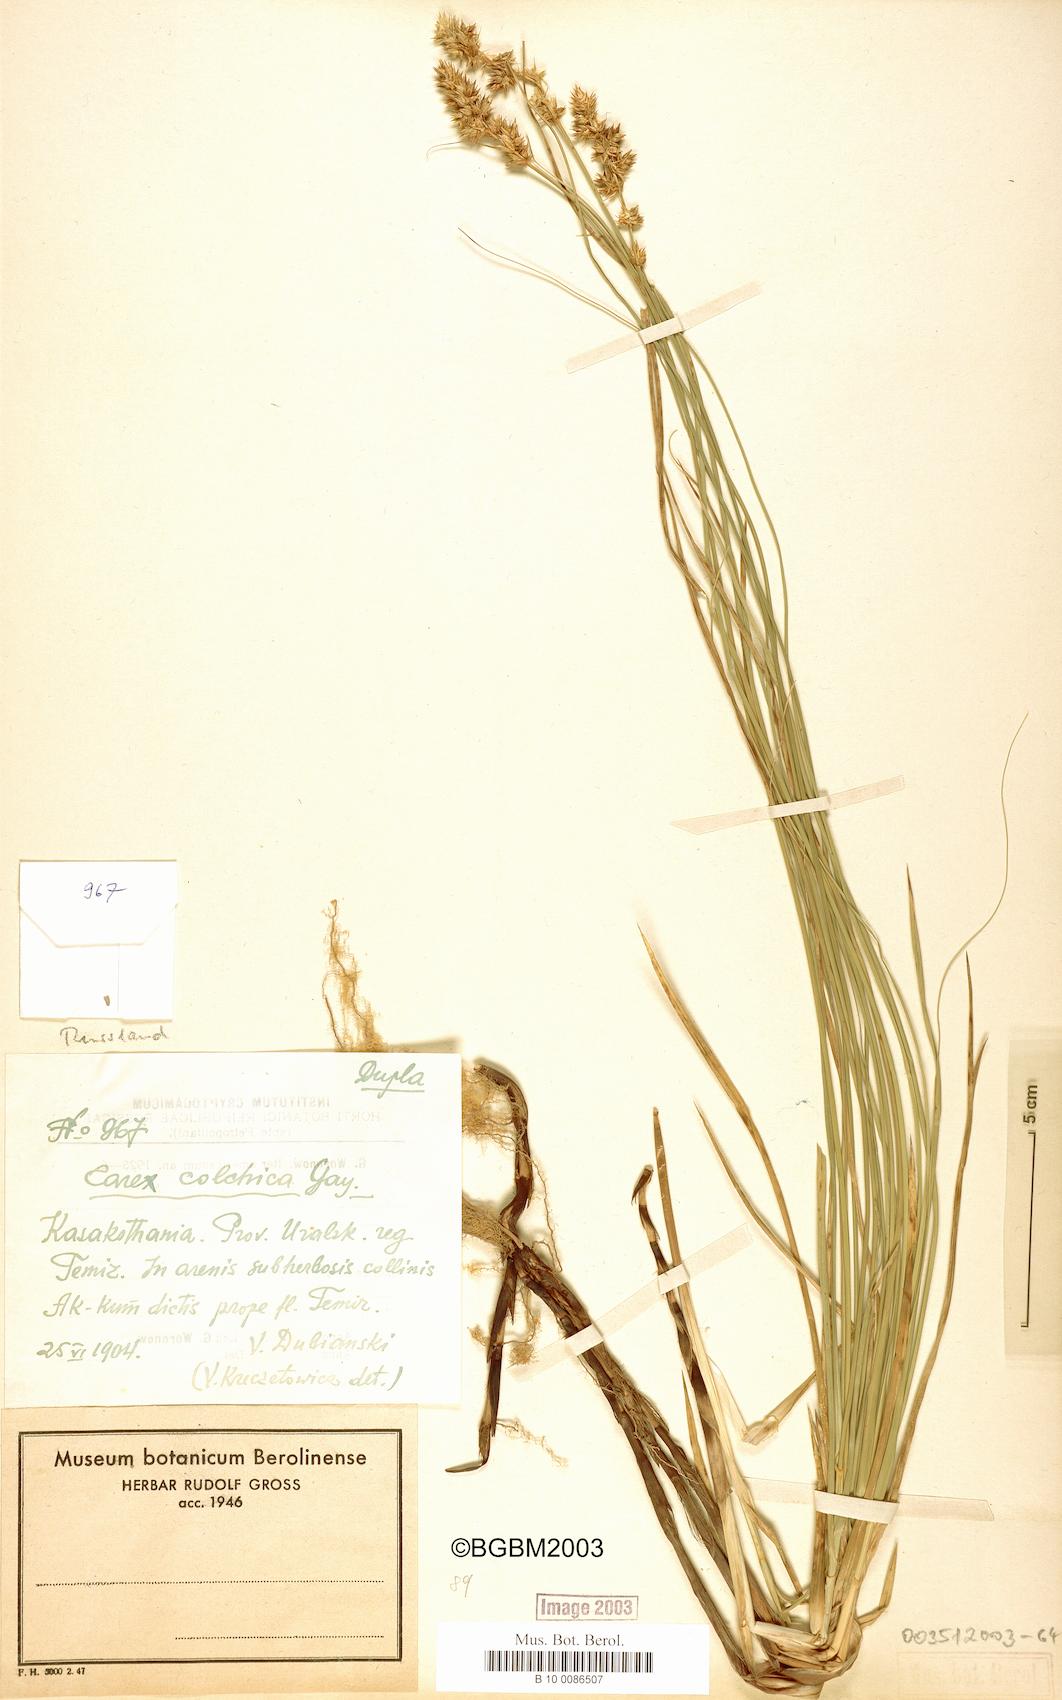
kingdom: Plantae
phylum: Tracheophyta
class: Liliopsida
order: Poales
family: Cyperaceae
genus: Carex
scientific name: Carex colchica
